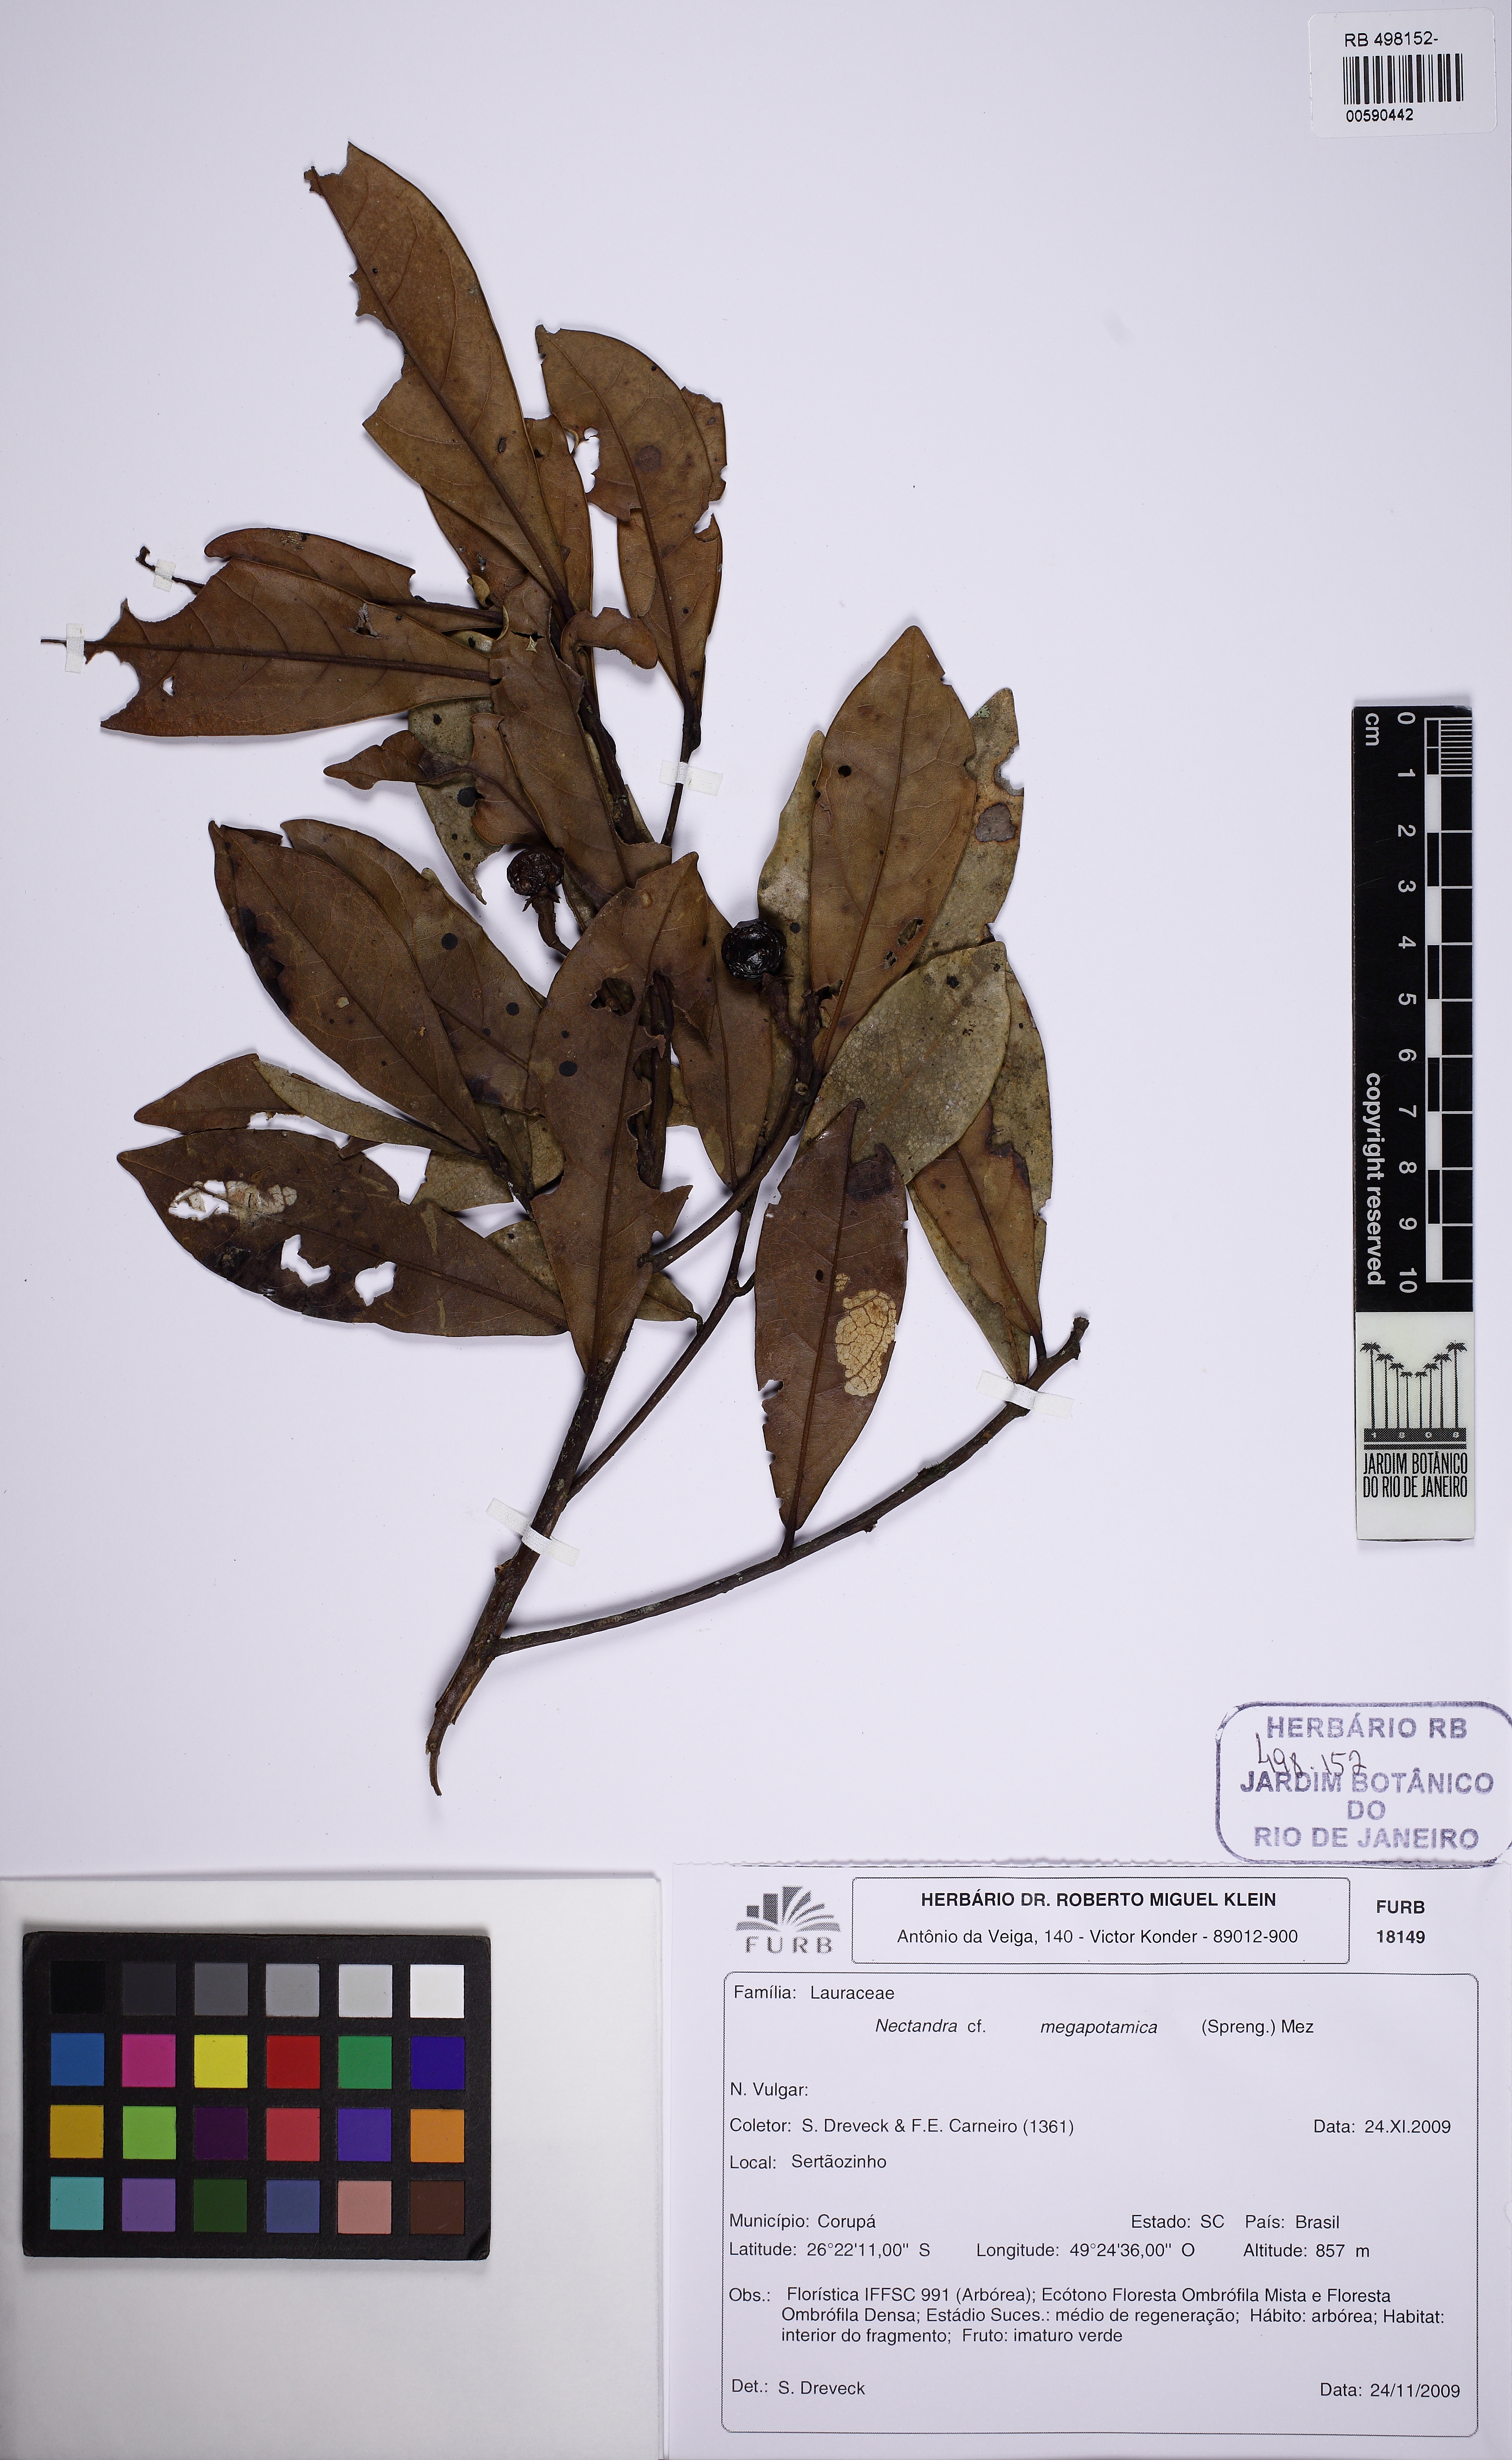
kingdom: Plantae
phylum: Tracheophyta
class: Magnoliopsida
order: Laurales
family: Lauraceae
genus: Nectandra
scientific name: Nectandra megapotamica
